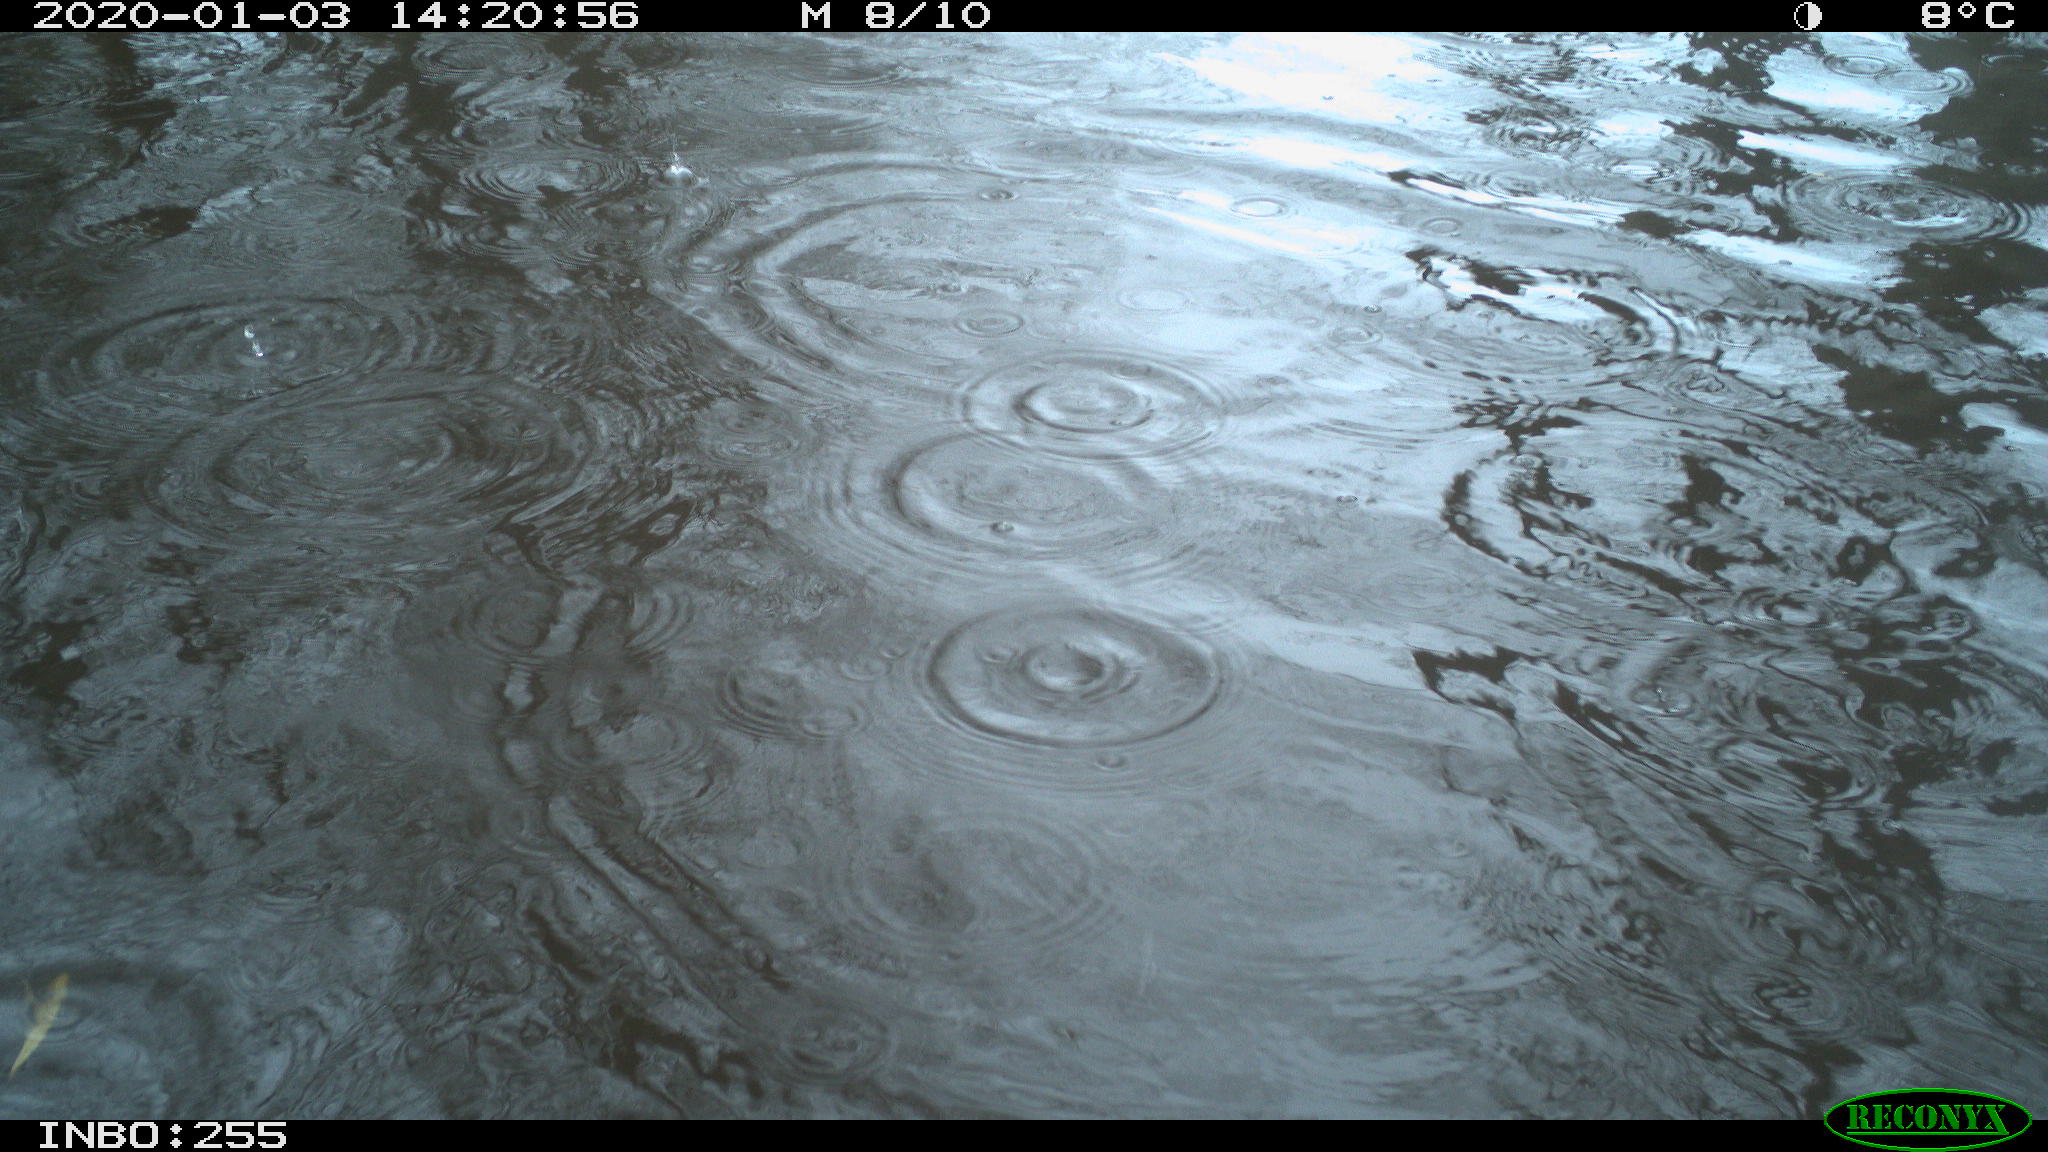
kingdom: Animalia
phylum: Chordata
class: Aves
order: Anseriformes
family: Anatidae
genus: Anas
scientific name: Anas platyrhynchos
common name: Mallard
